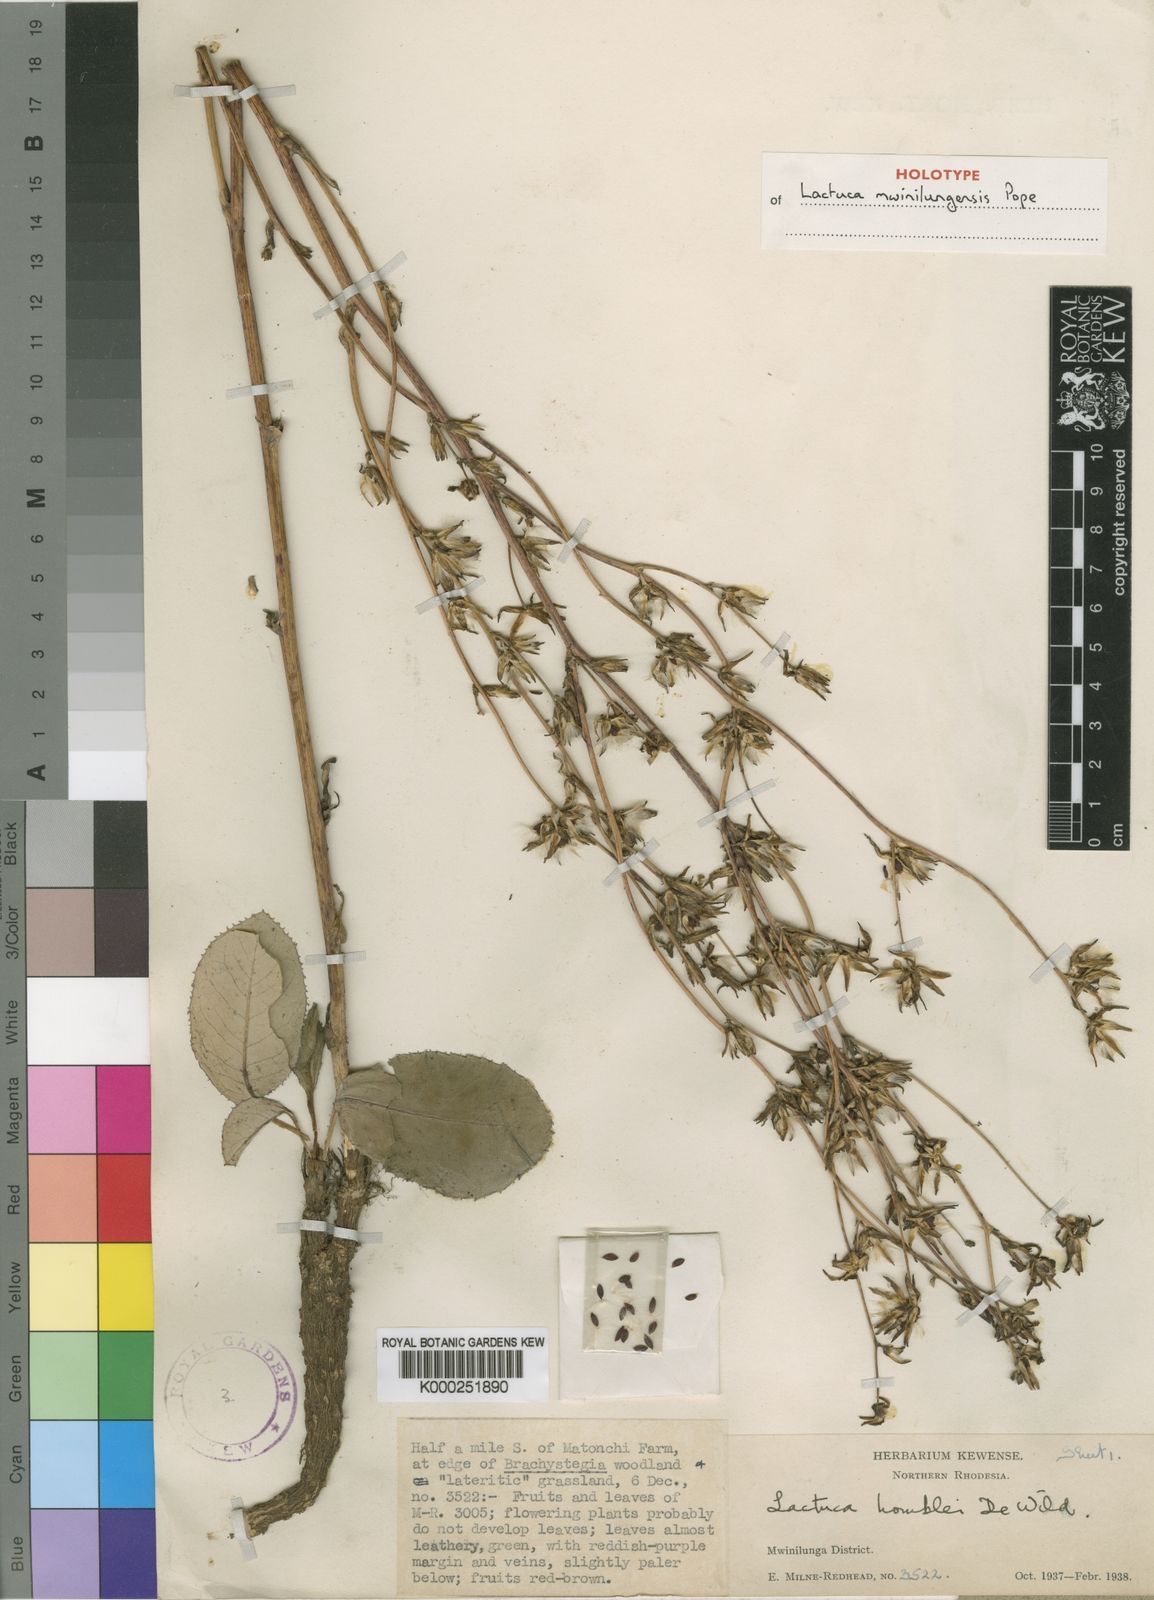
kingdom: Plantae
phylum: Tracheophyta
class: Magnoliopsida
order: Asterales
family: Asteraceae
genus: Lactuca
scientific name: Lactuca mwinilungensis
